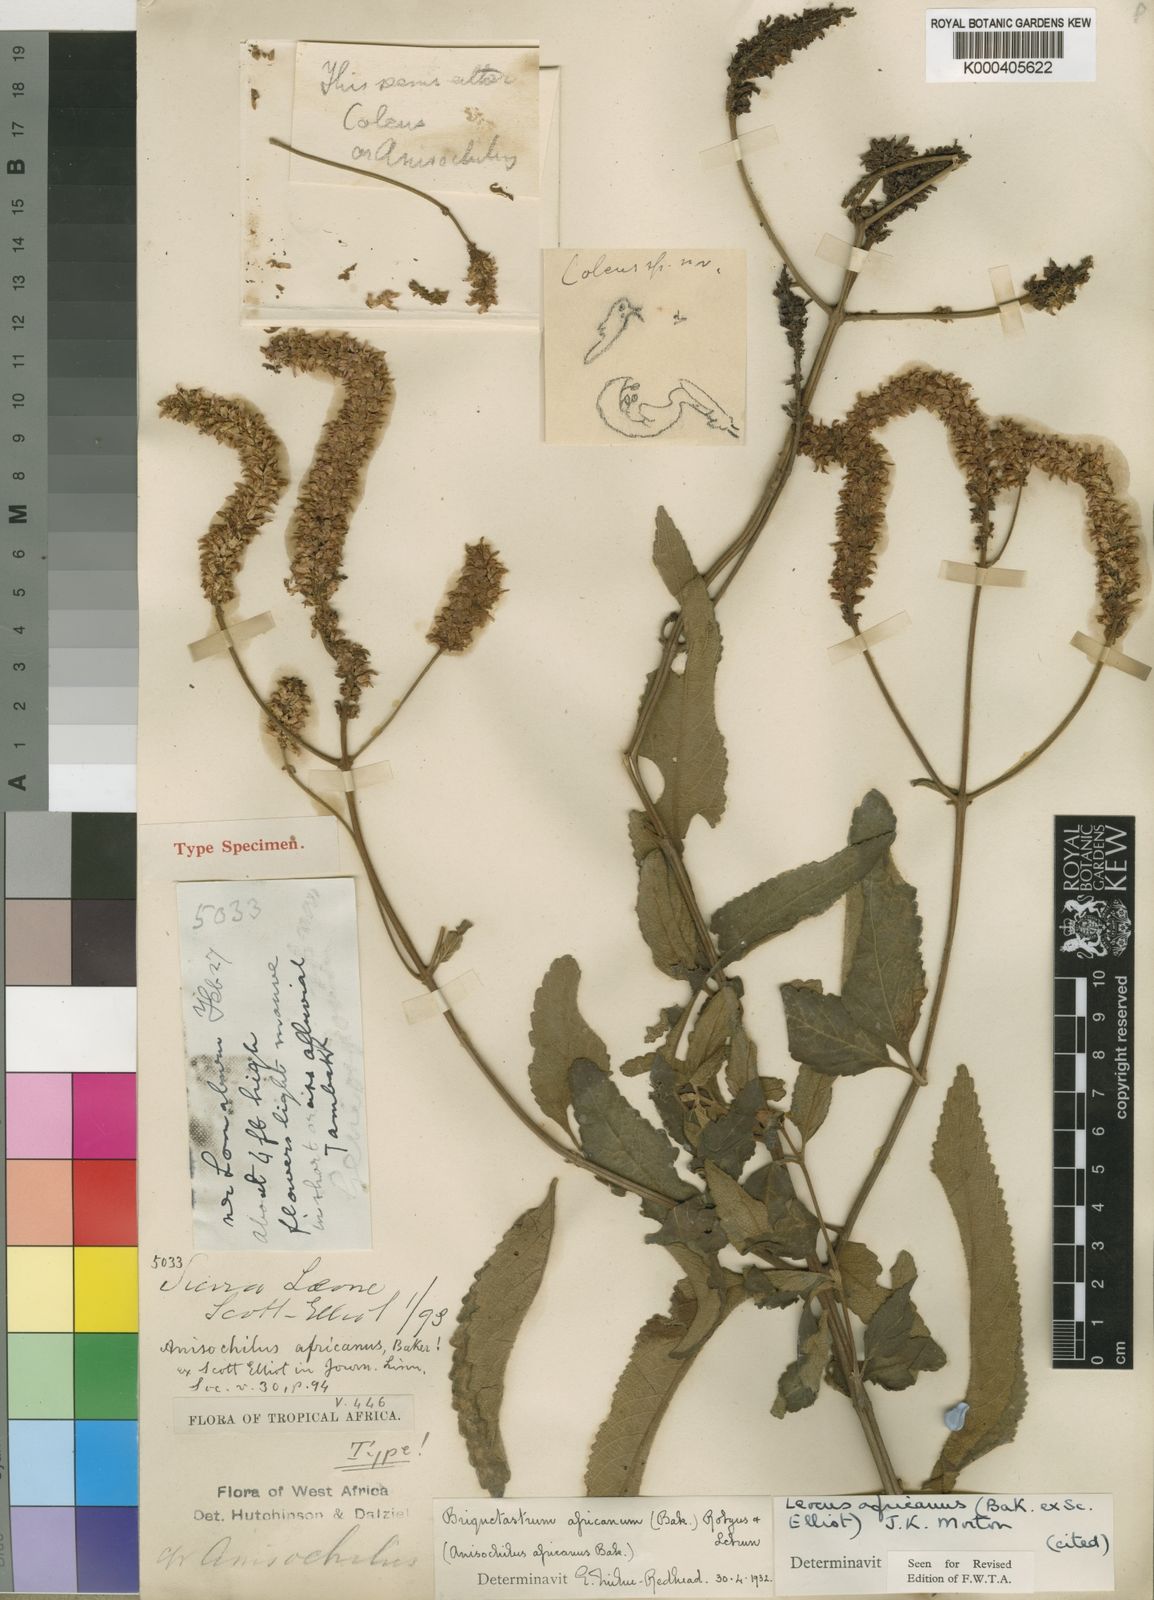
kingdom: Plantae
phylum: Tracheophyta
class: Magnoliopsida
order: Lamiales
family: Lamiaceae
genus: Coleus
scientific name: Coleus engleri
